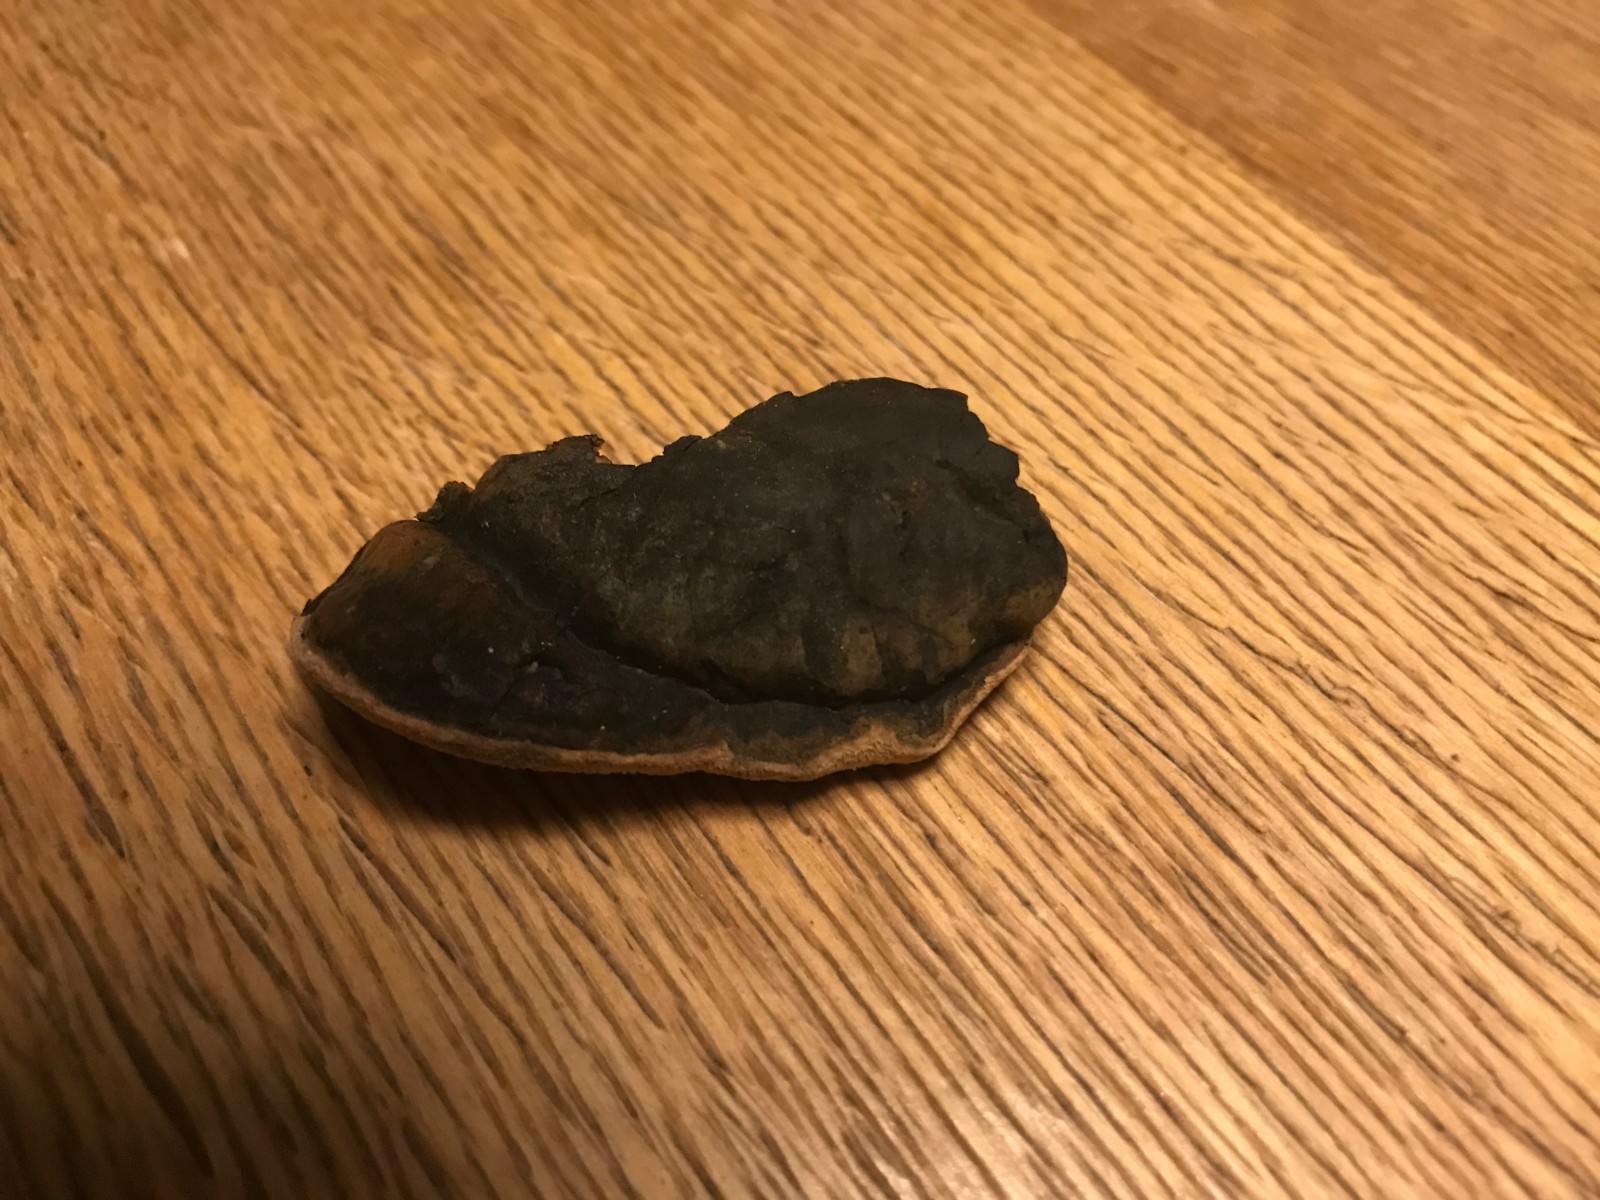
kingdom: Fungi
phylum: Basidiomycota
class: Agaricomycetes
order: Polyporales
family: Ischnodermataceae
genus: Ischnoderma
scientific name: Ischnoderma resinosum
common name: løv-tjæreporesvamp
